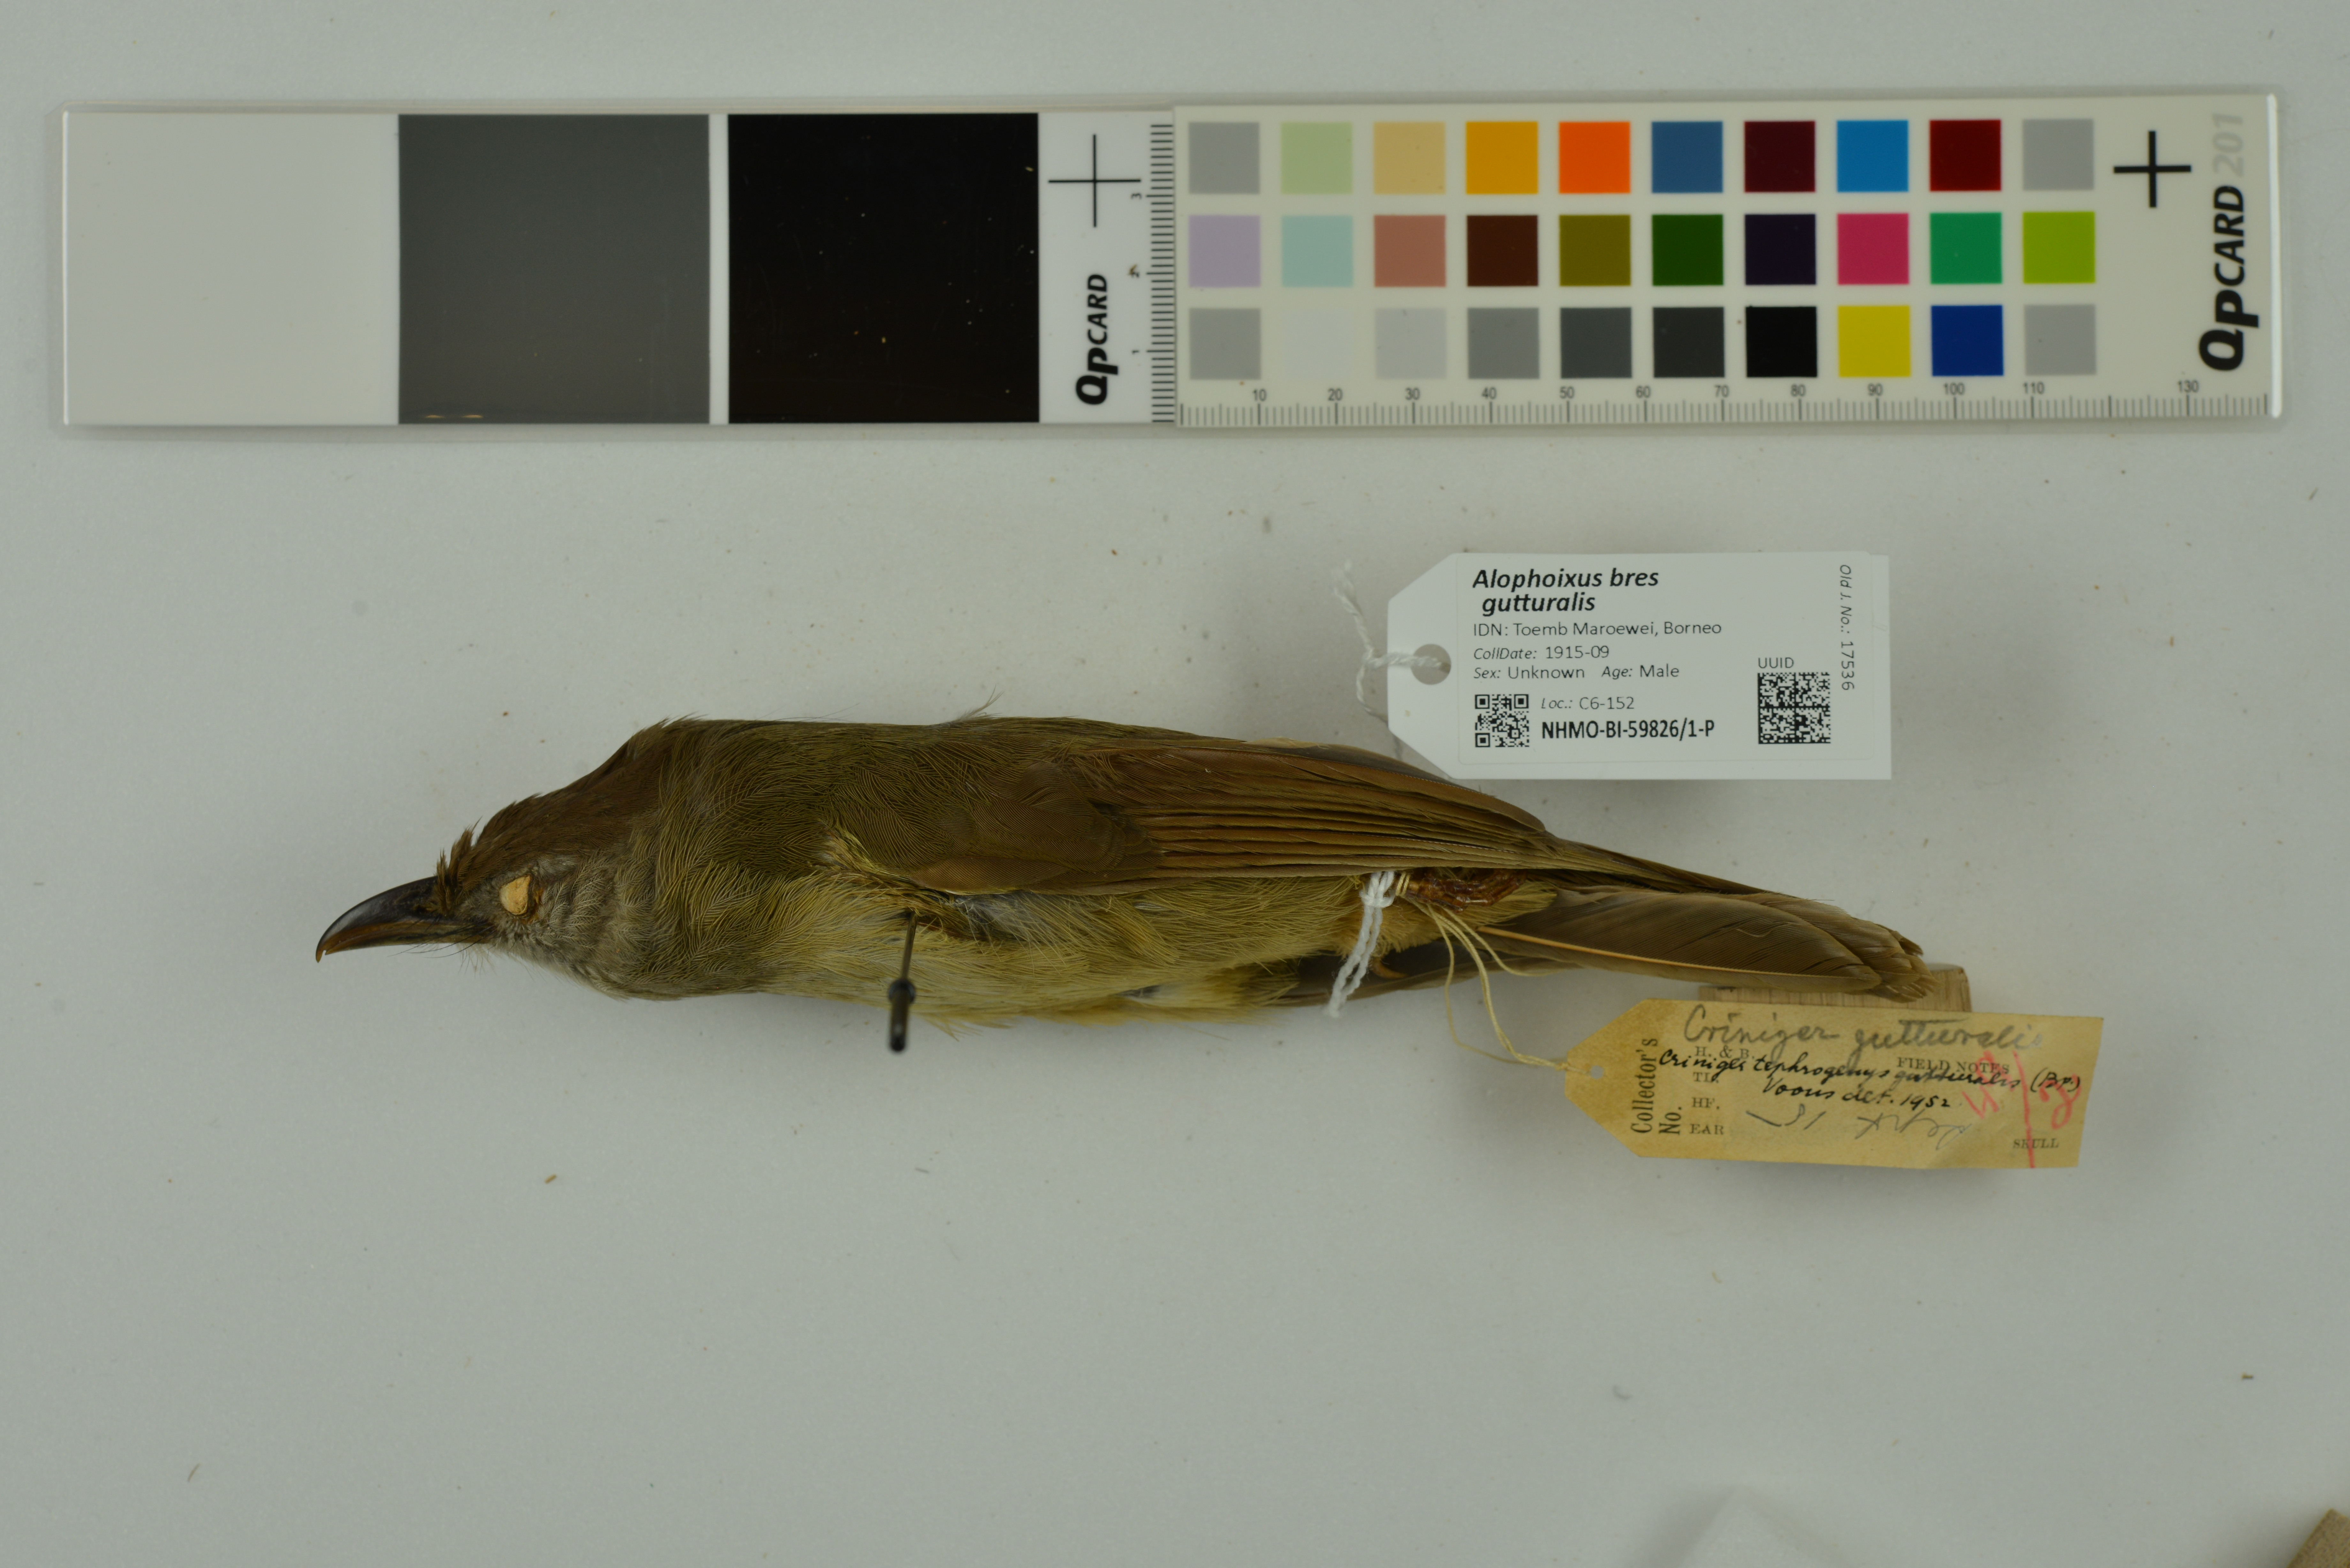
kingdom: Animalia
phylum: Chordata
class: Aves
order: Passeriformes
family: Pycnonotidae
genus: Alophoixus
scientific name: Alophoixus bres
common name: Gray-cheeked bulbul
